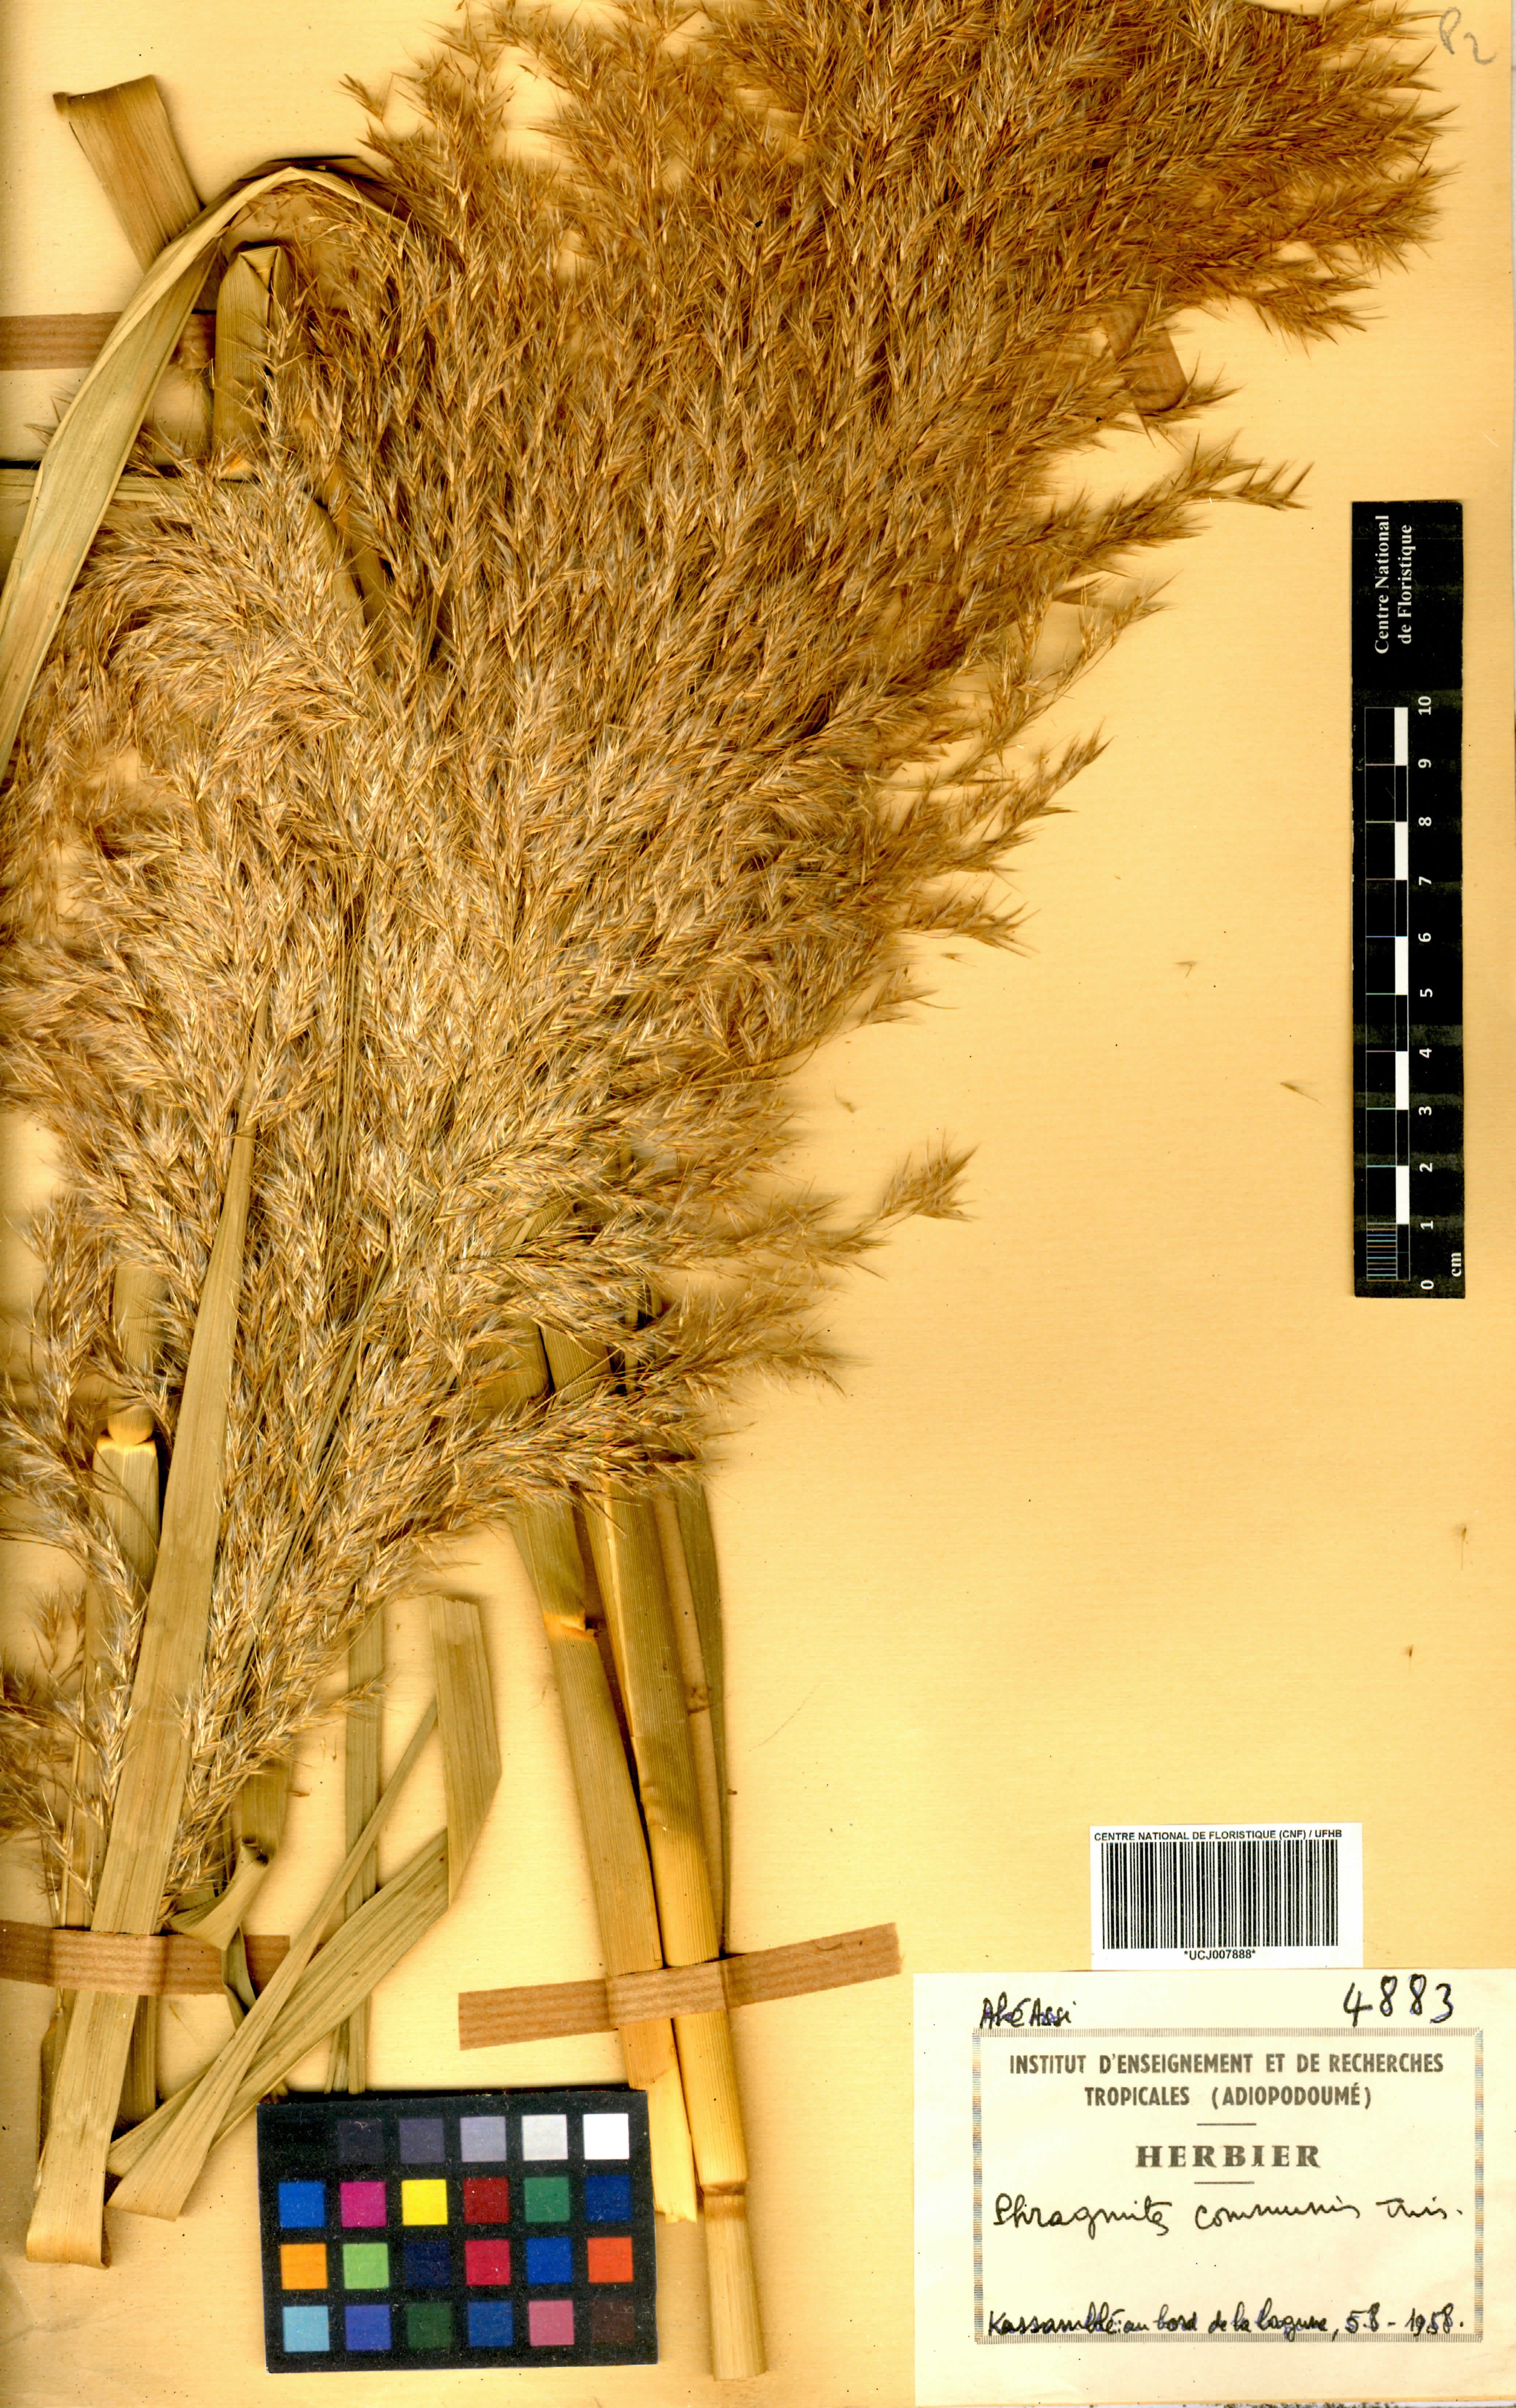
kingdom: Plantae
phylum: Tracheophyta
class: Liliopsida
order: Poales
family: Poaceae
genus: Phragmites
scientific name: Phragmites australis
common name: Common reed
